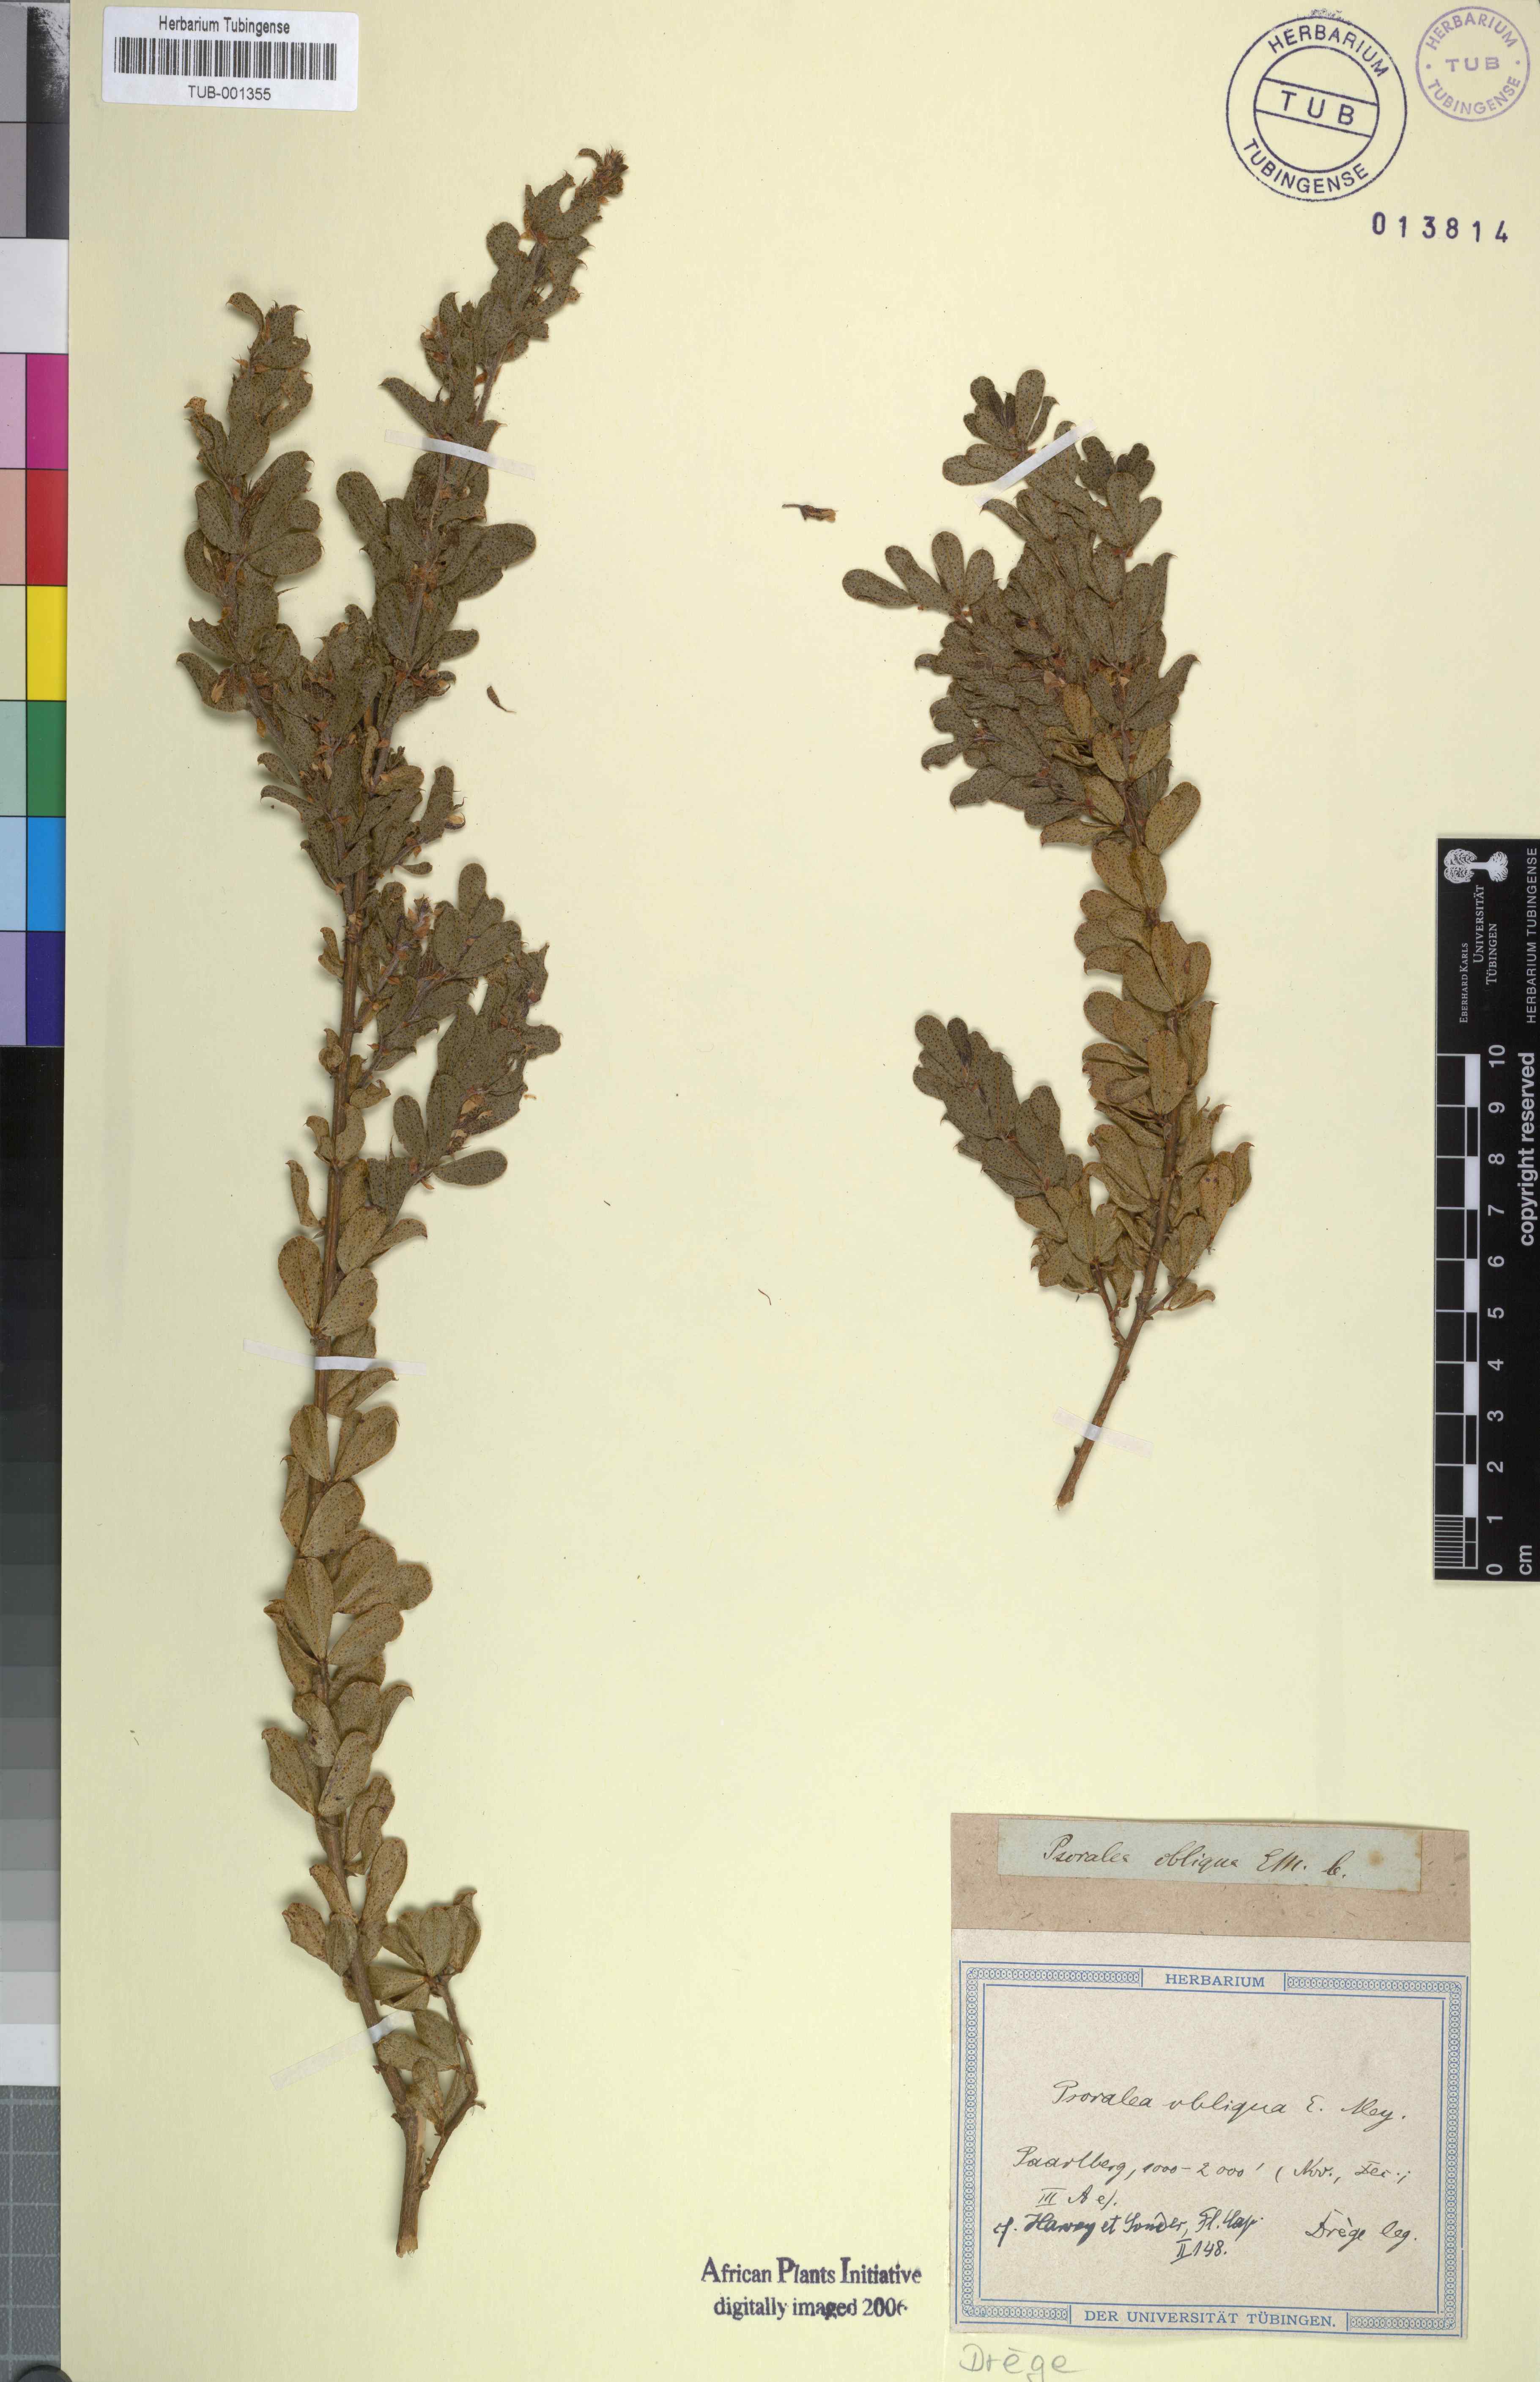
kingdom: Plantae
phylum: Tracheophyta
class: Magnoliopsida
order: Fabales
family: Fabaceae
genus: Psoralea
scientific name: Psoralea obliqua
